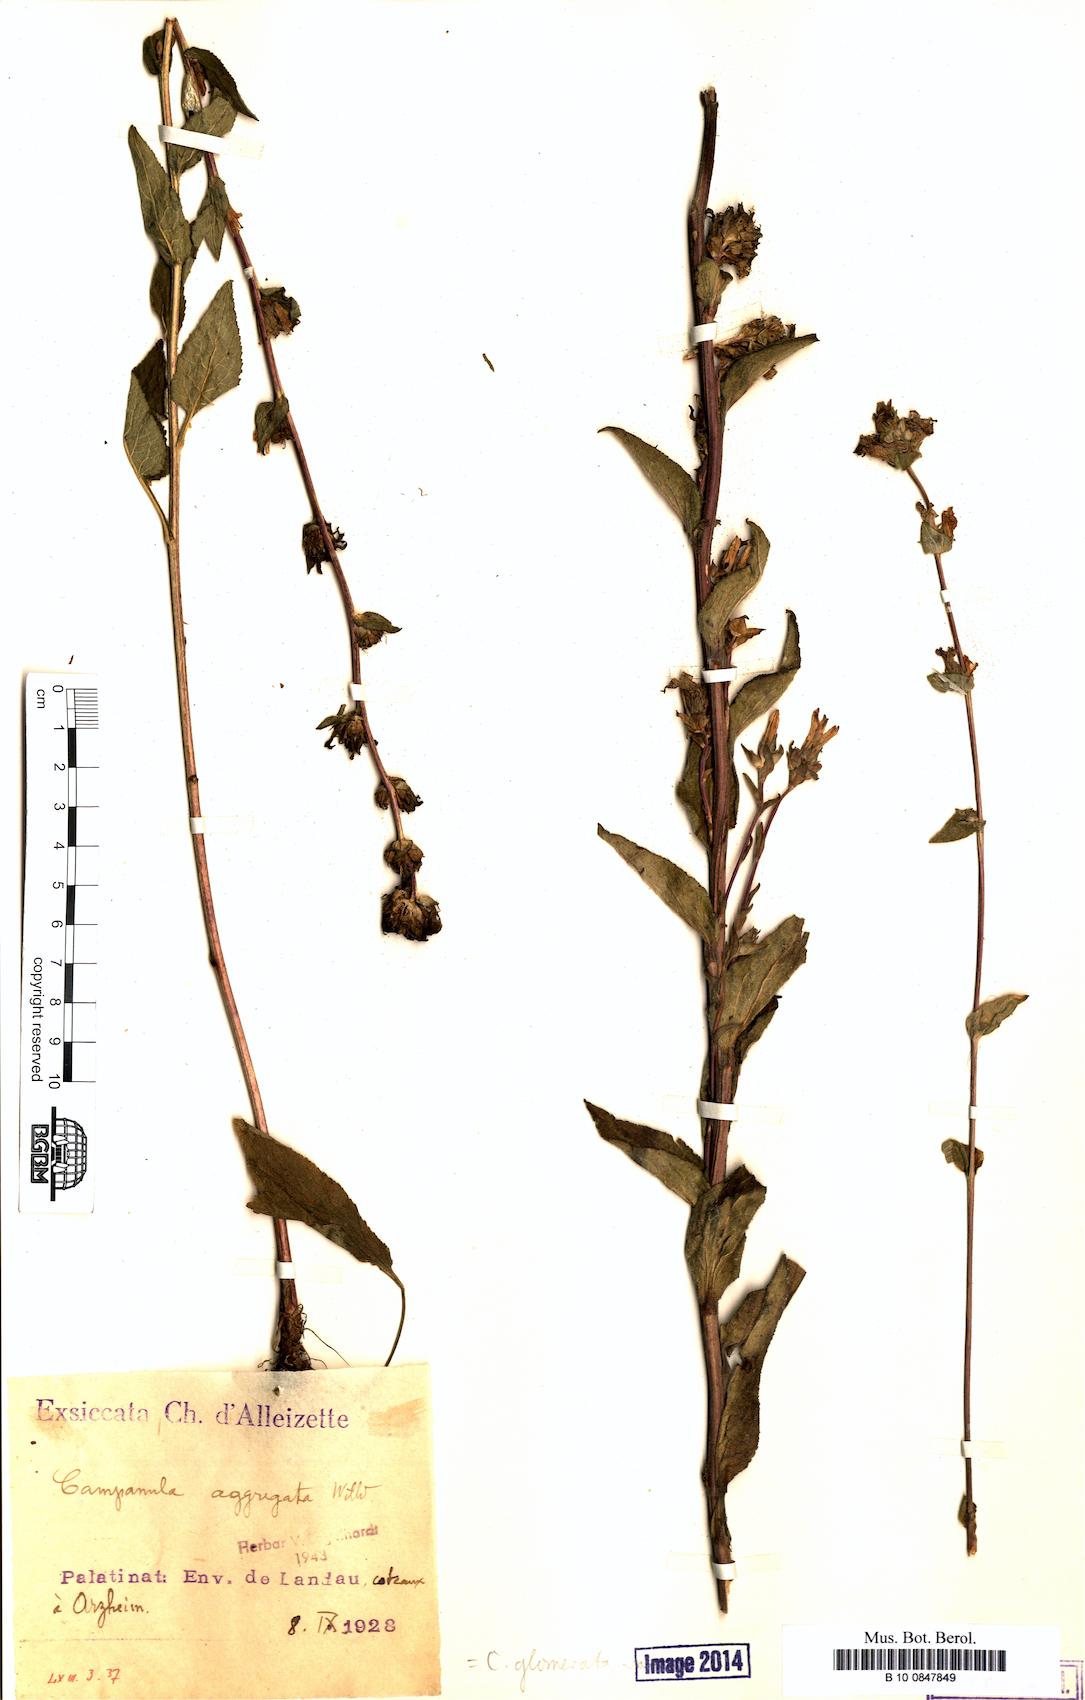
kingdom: Plantae
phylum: Tracheophyta
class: Magnoliopsida
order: Asterales
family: Campanulaceae
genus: Campanula
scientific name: Campanula glomerata
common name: Clustered bellflower
